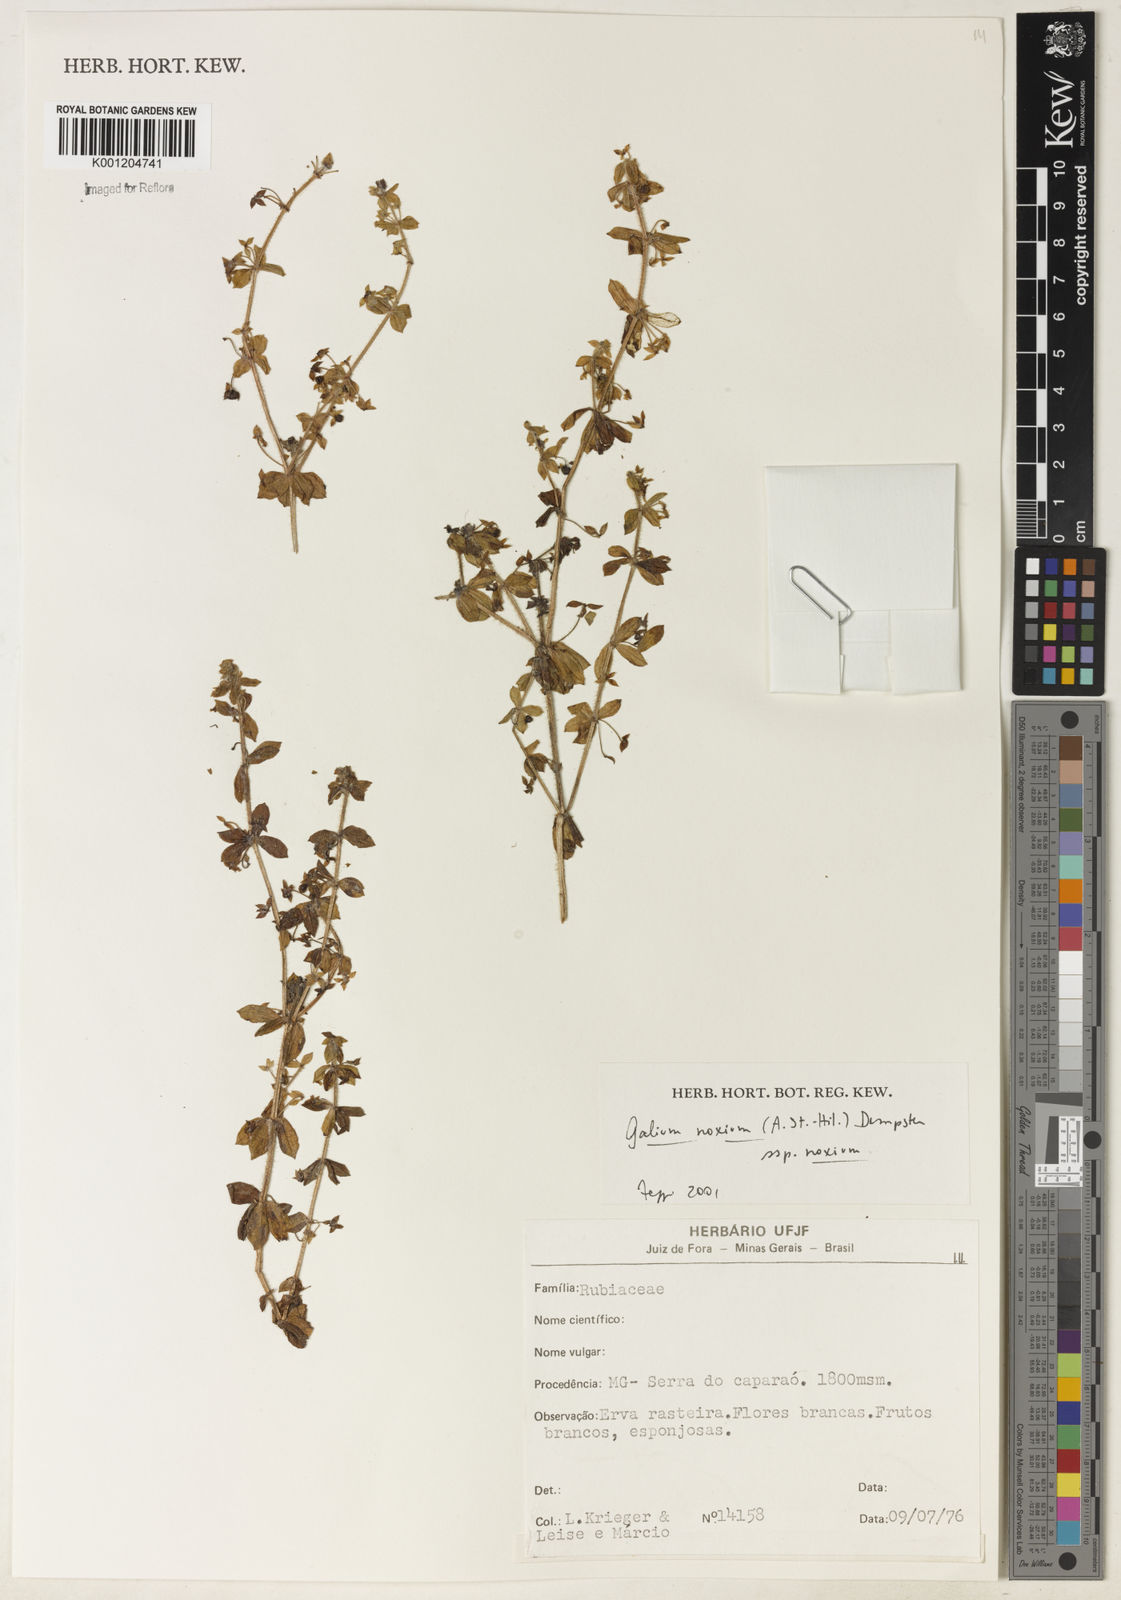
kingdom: Plantae
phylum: Tracheophyta
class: Magnoliopsida
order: Gentianales
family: Rubiaceae
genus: Galium
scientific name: Galium noxium
